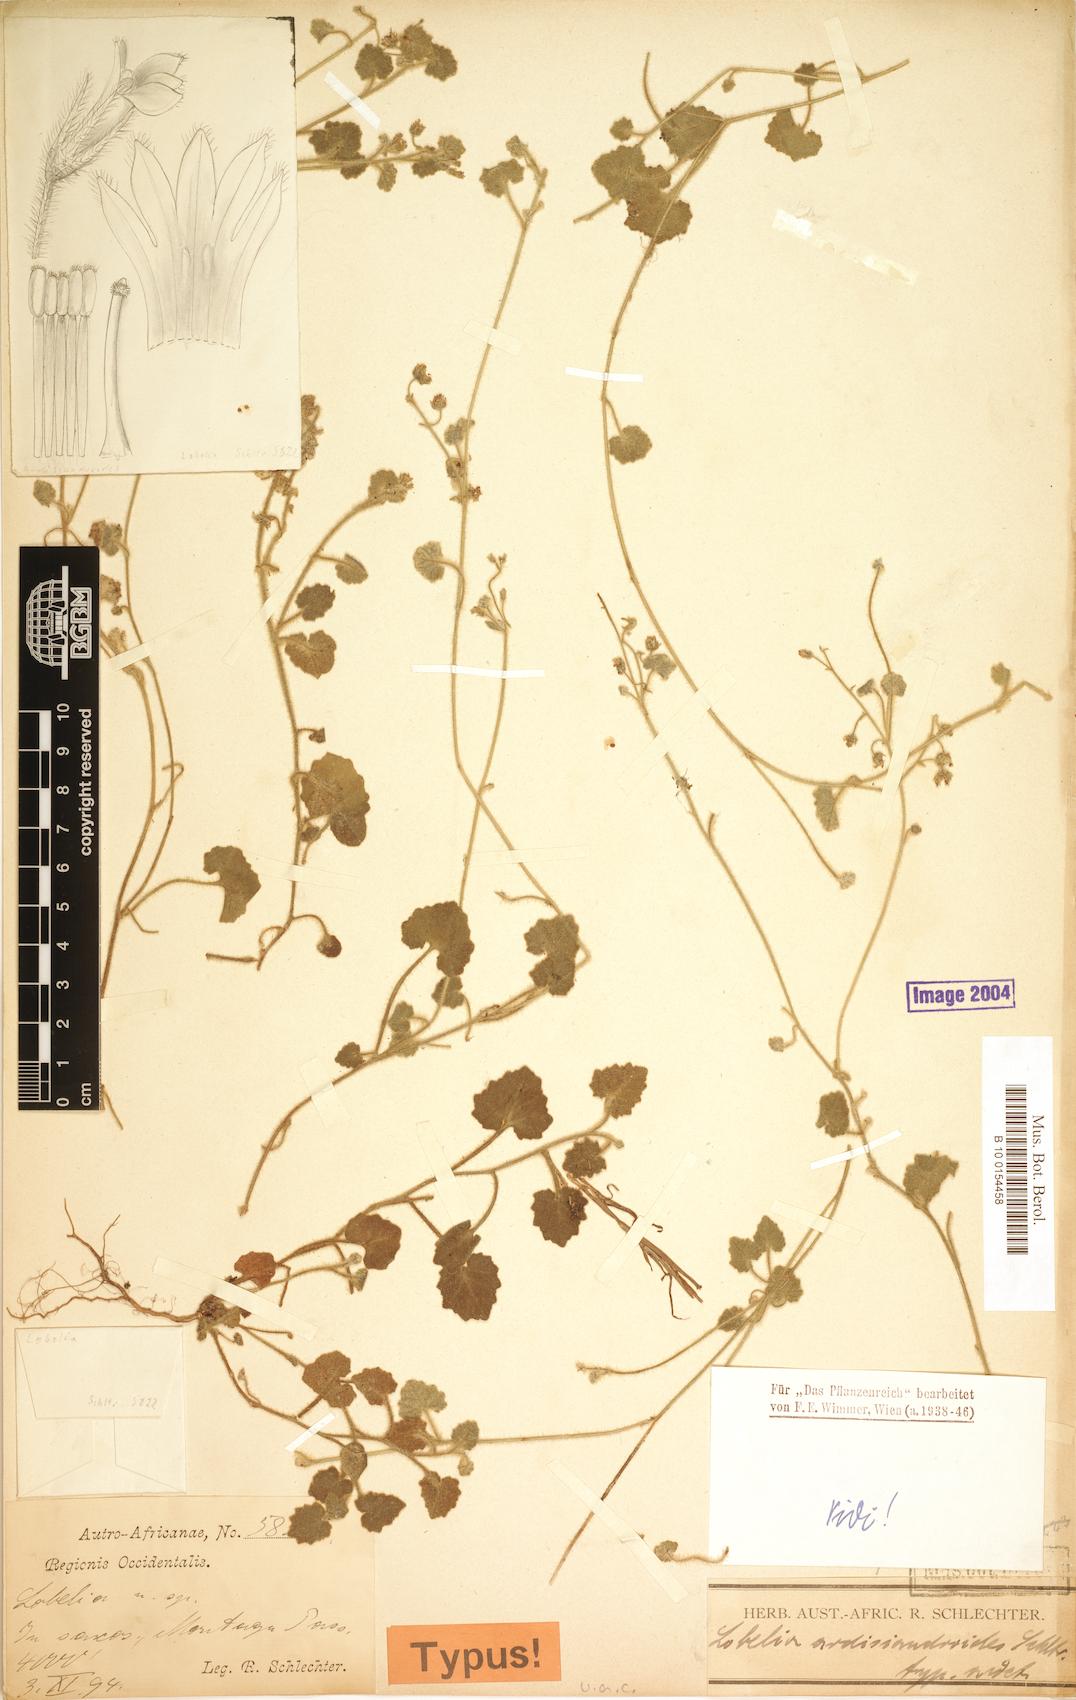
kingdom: Plantae
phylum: Tracheophyta
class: Magnoliopsida
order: Asterales
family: Campanulaceae
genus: Lobelia
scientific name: Lobelia ardisiandroides
